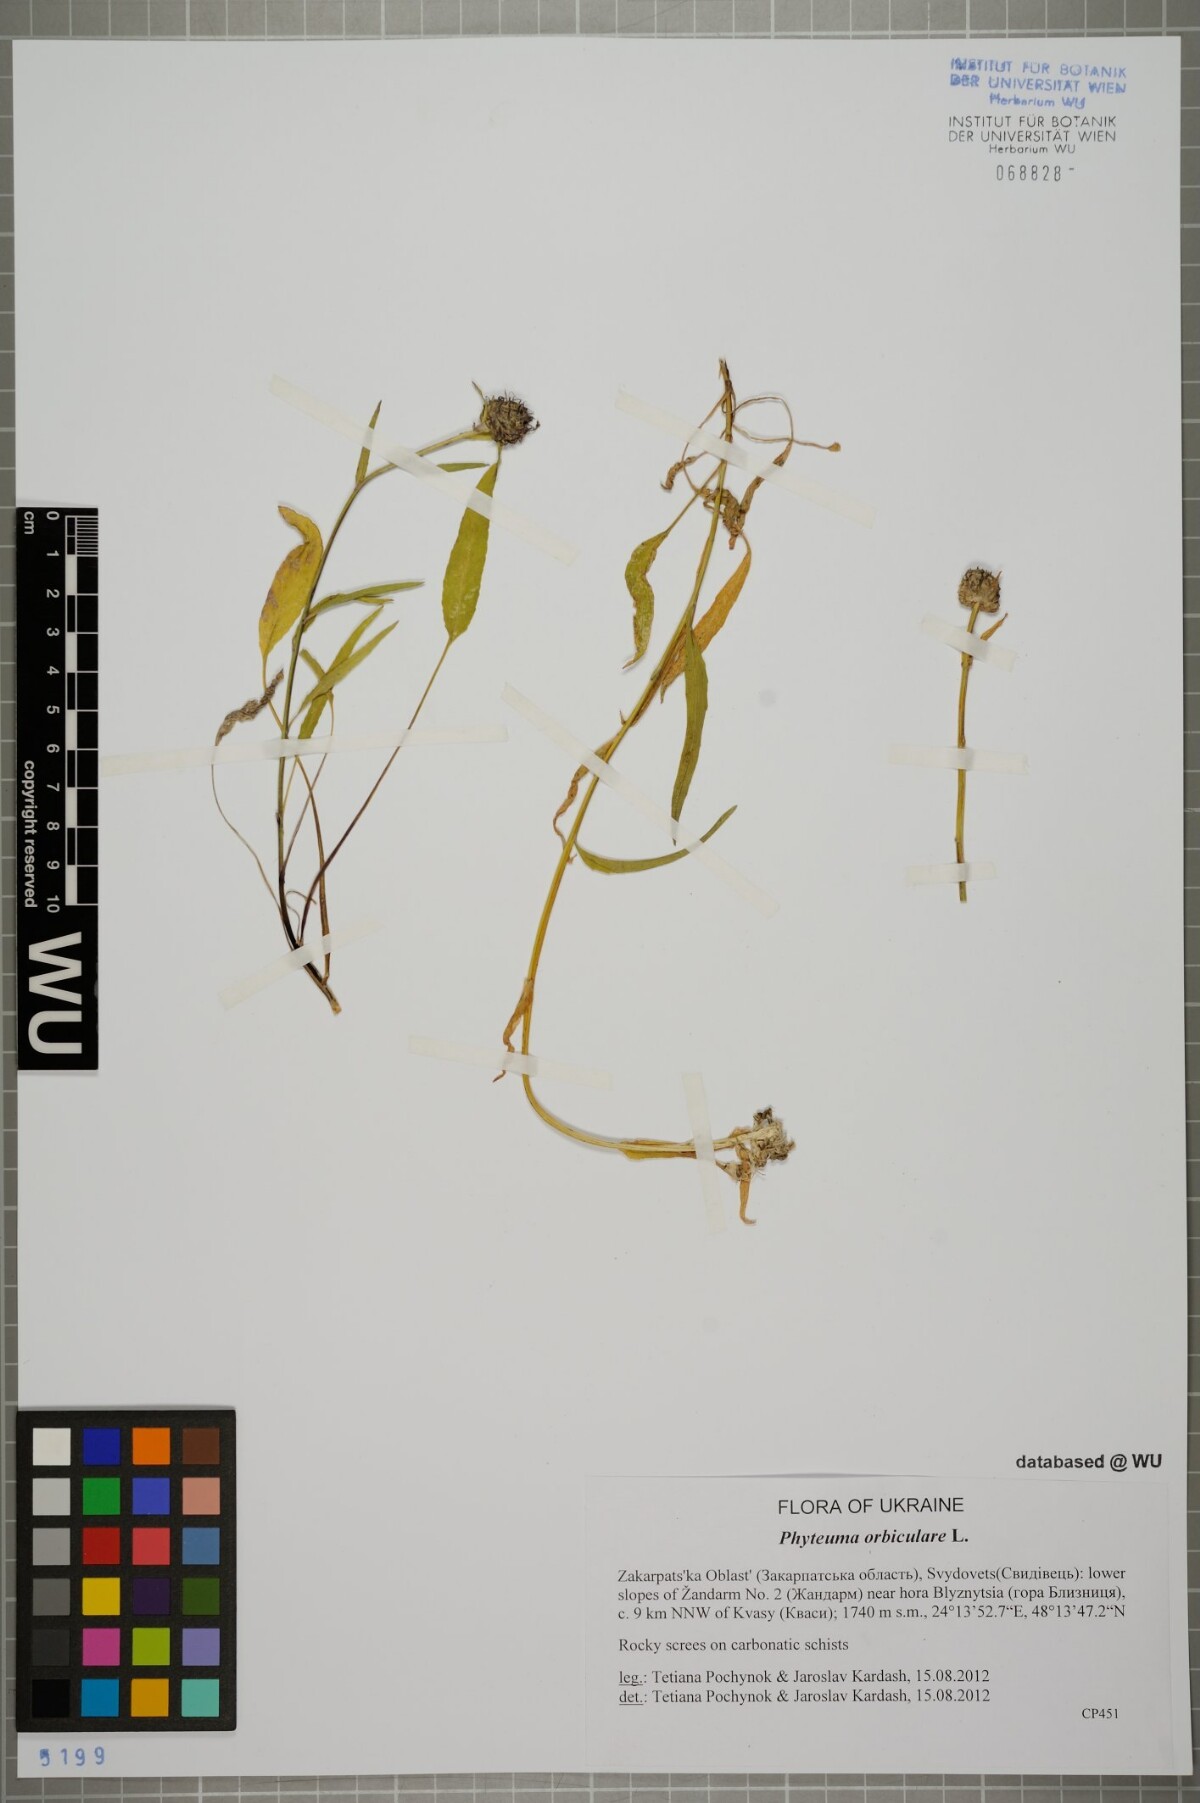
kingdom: Plantae
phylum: Tracheophyta
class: Magnoliopsida
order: Asterales
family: Campanulaceae
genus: Phyteuma
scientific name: Phyteuma orbiculare
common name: Round-headed rampion
